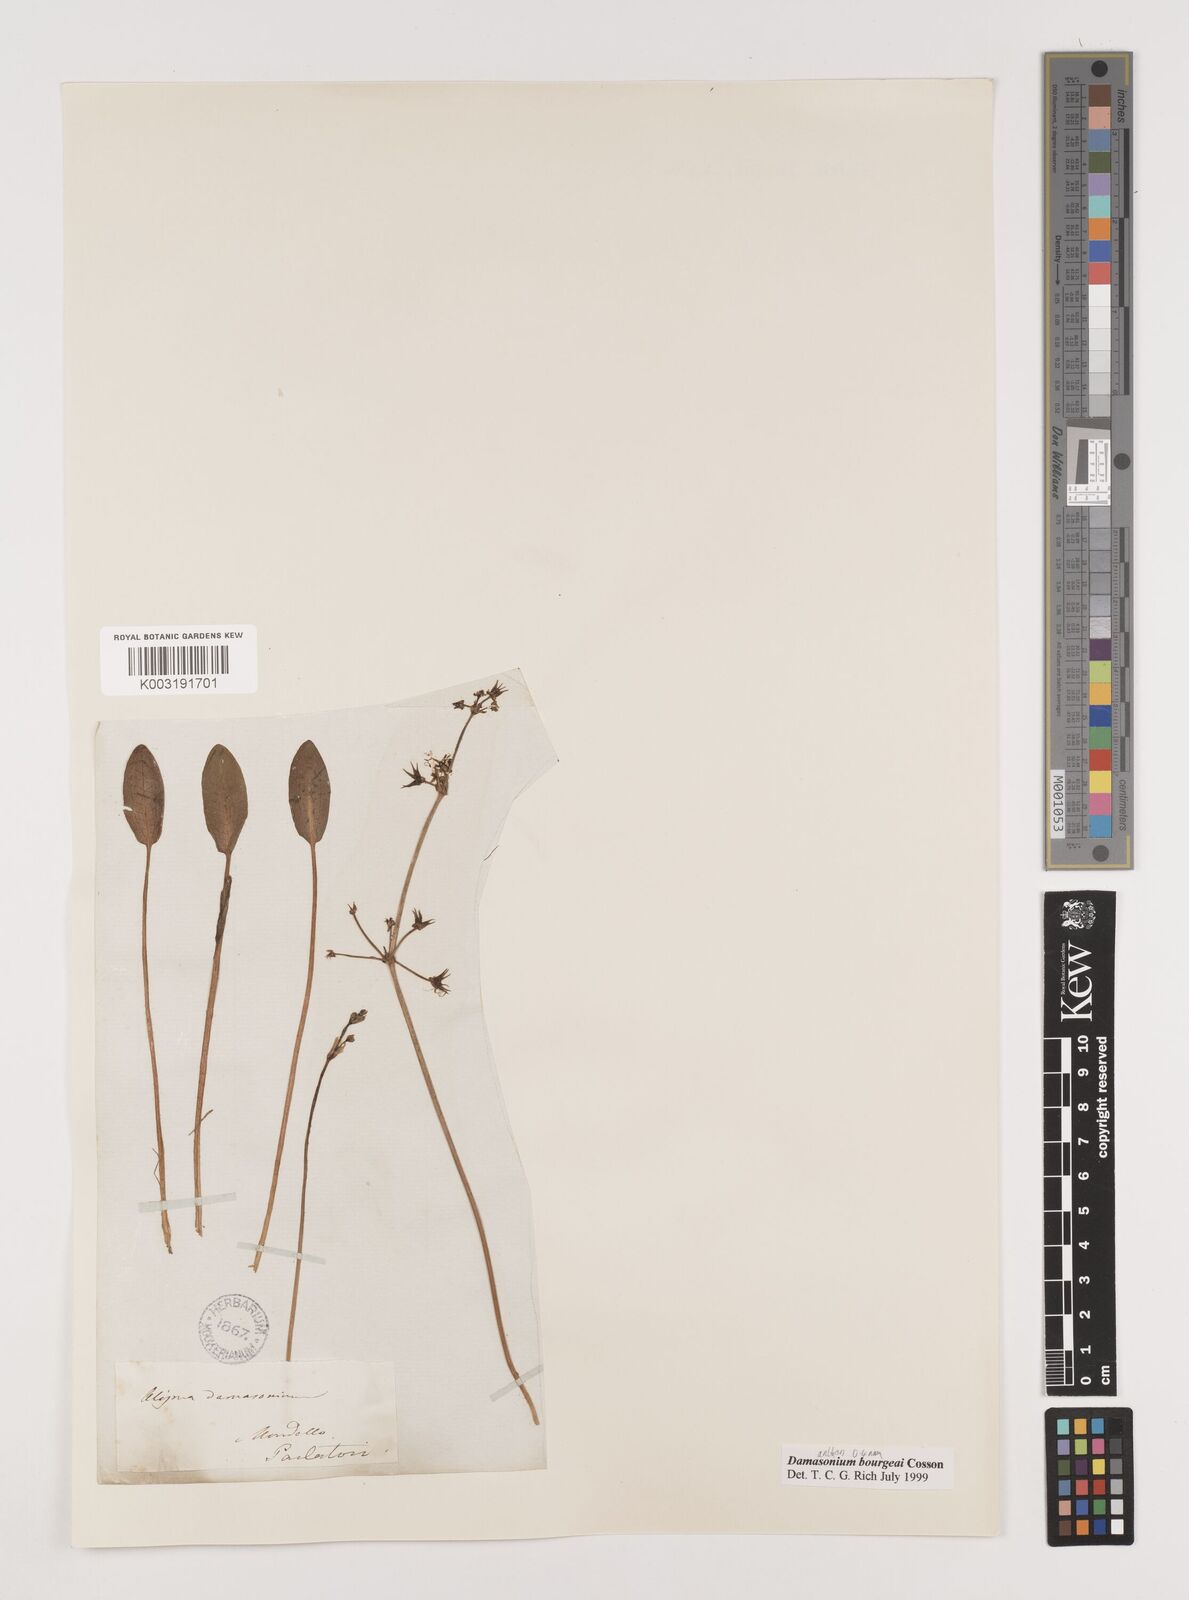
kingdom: Plantae
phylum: Tracheophyta
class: Liliopsida
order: Alismatales
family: Alismataceae
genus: Damasonium
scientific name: Damasonium bourgaei
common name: Starfruit
